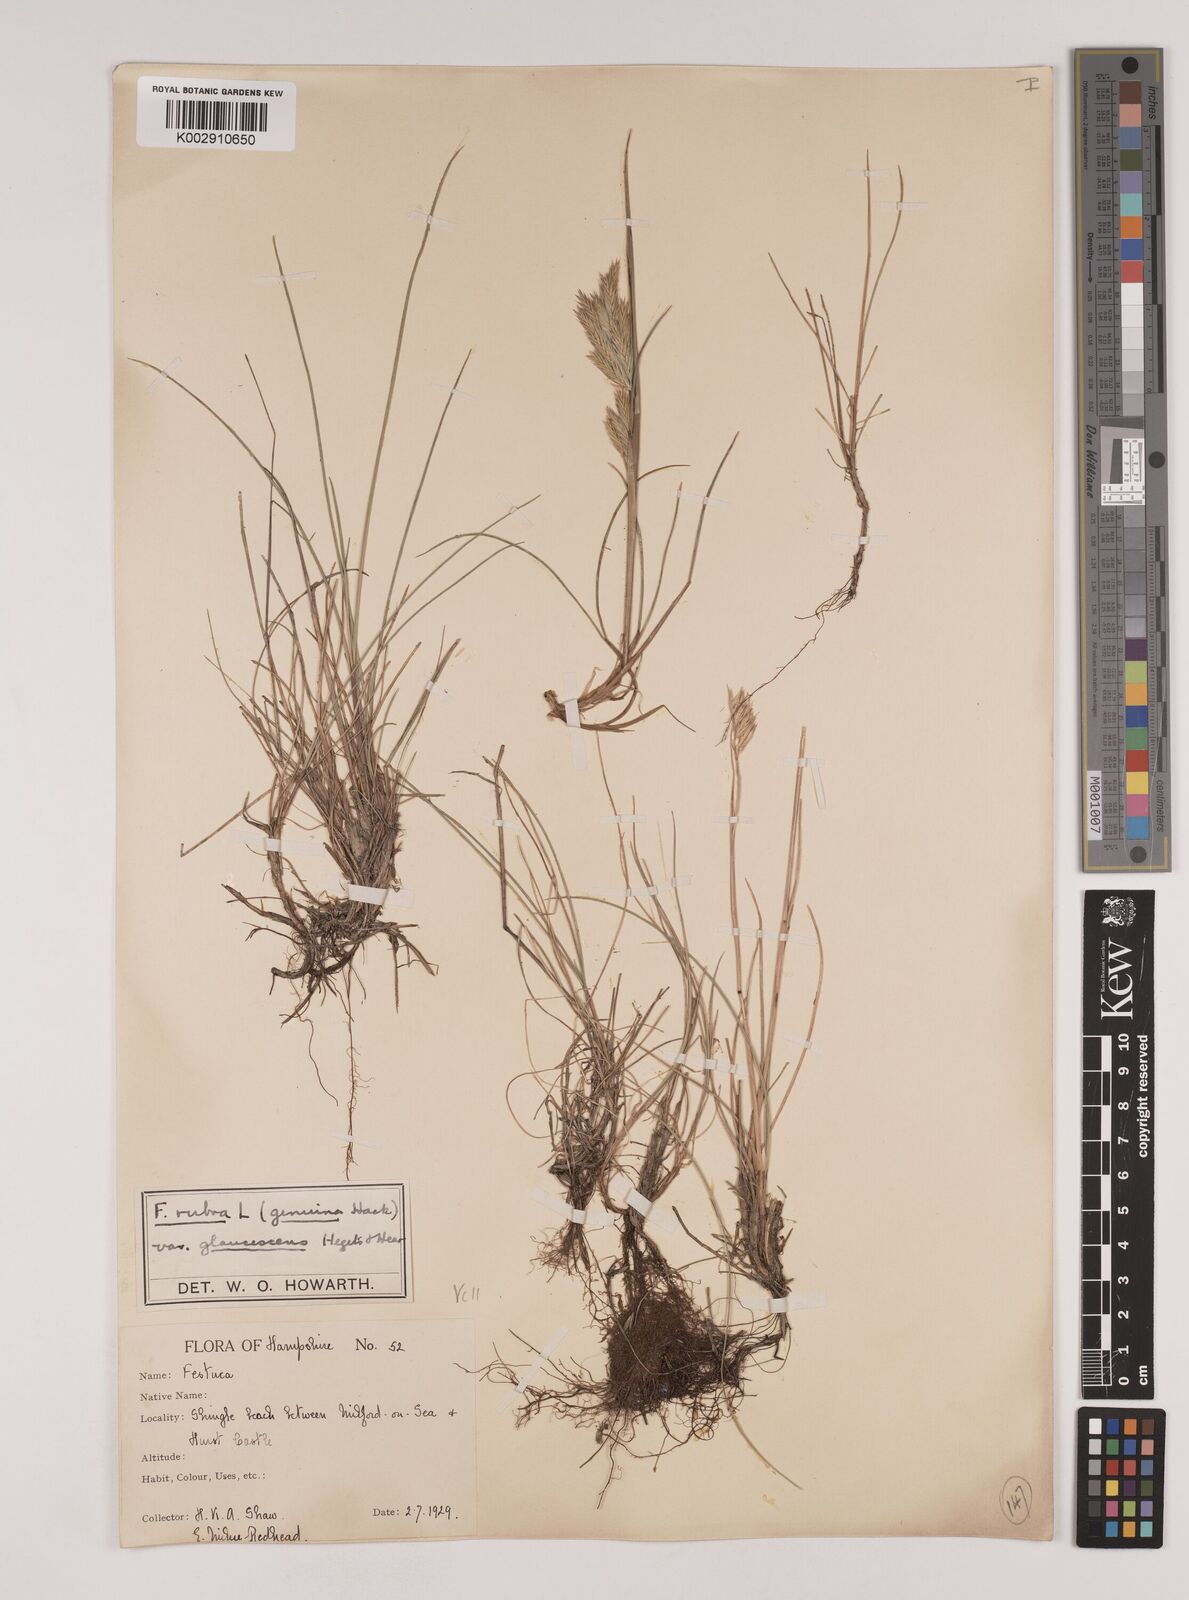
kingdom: Plantae
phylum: Tracheophyta
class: Liliopsida
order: Poales
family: Poaceae
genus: Festuca
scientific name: Festuca rubra
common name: Red fescue
